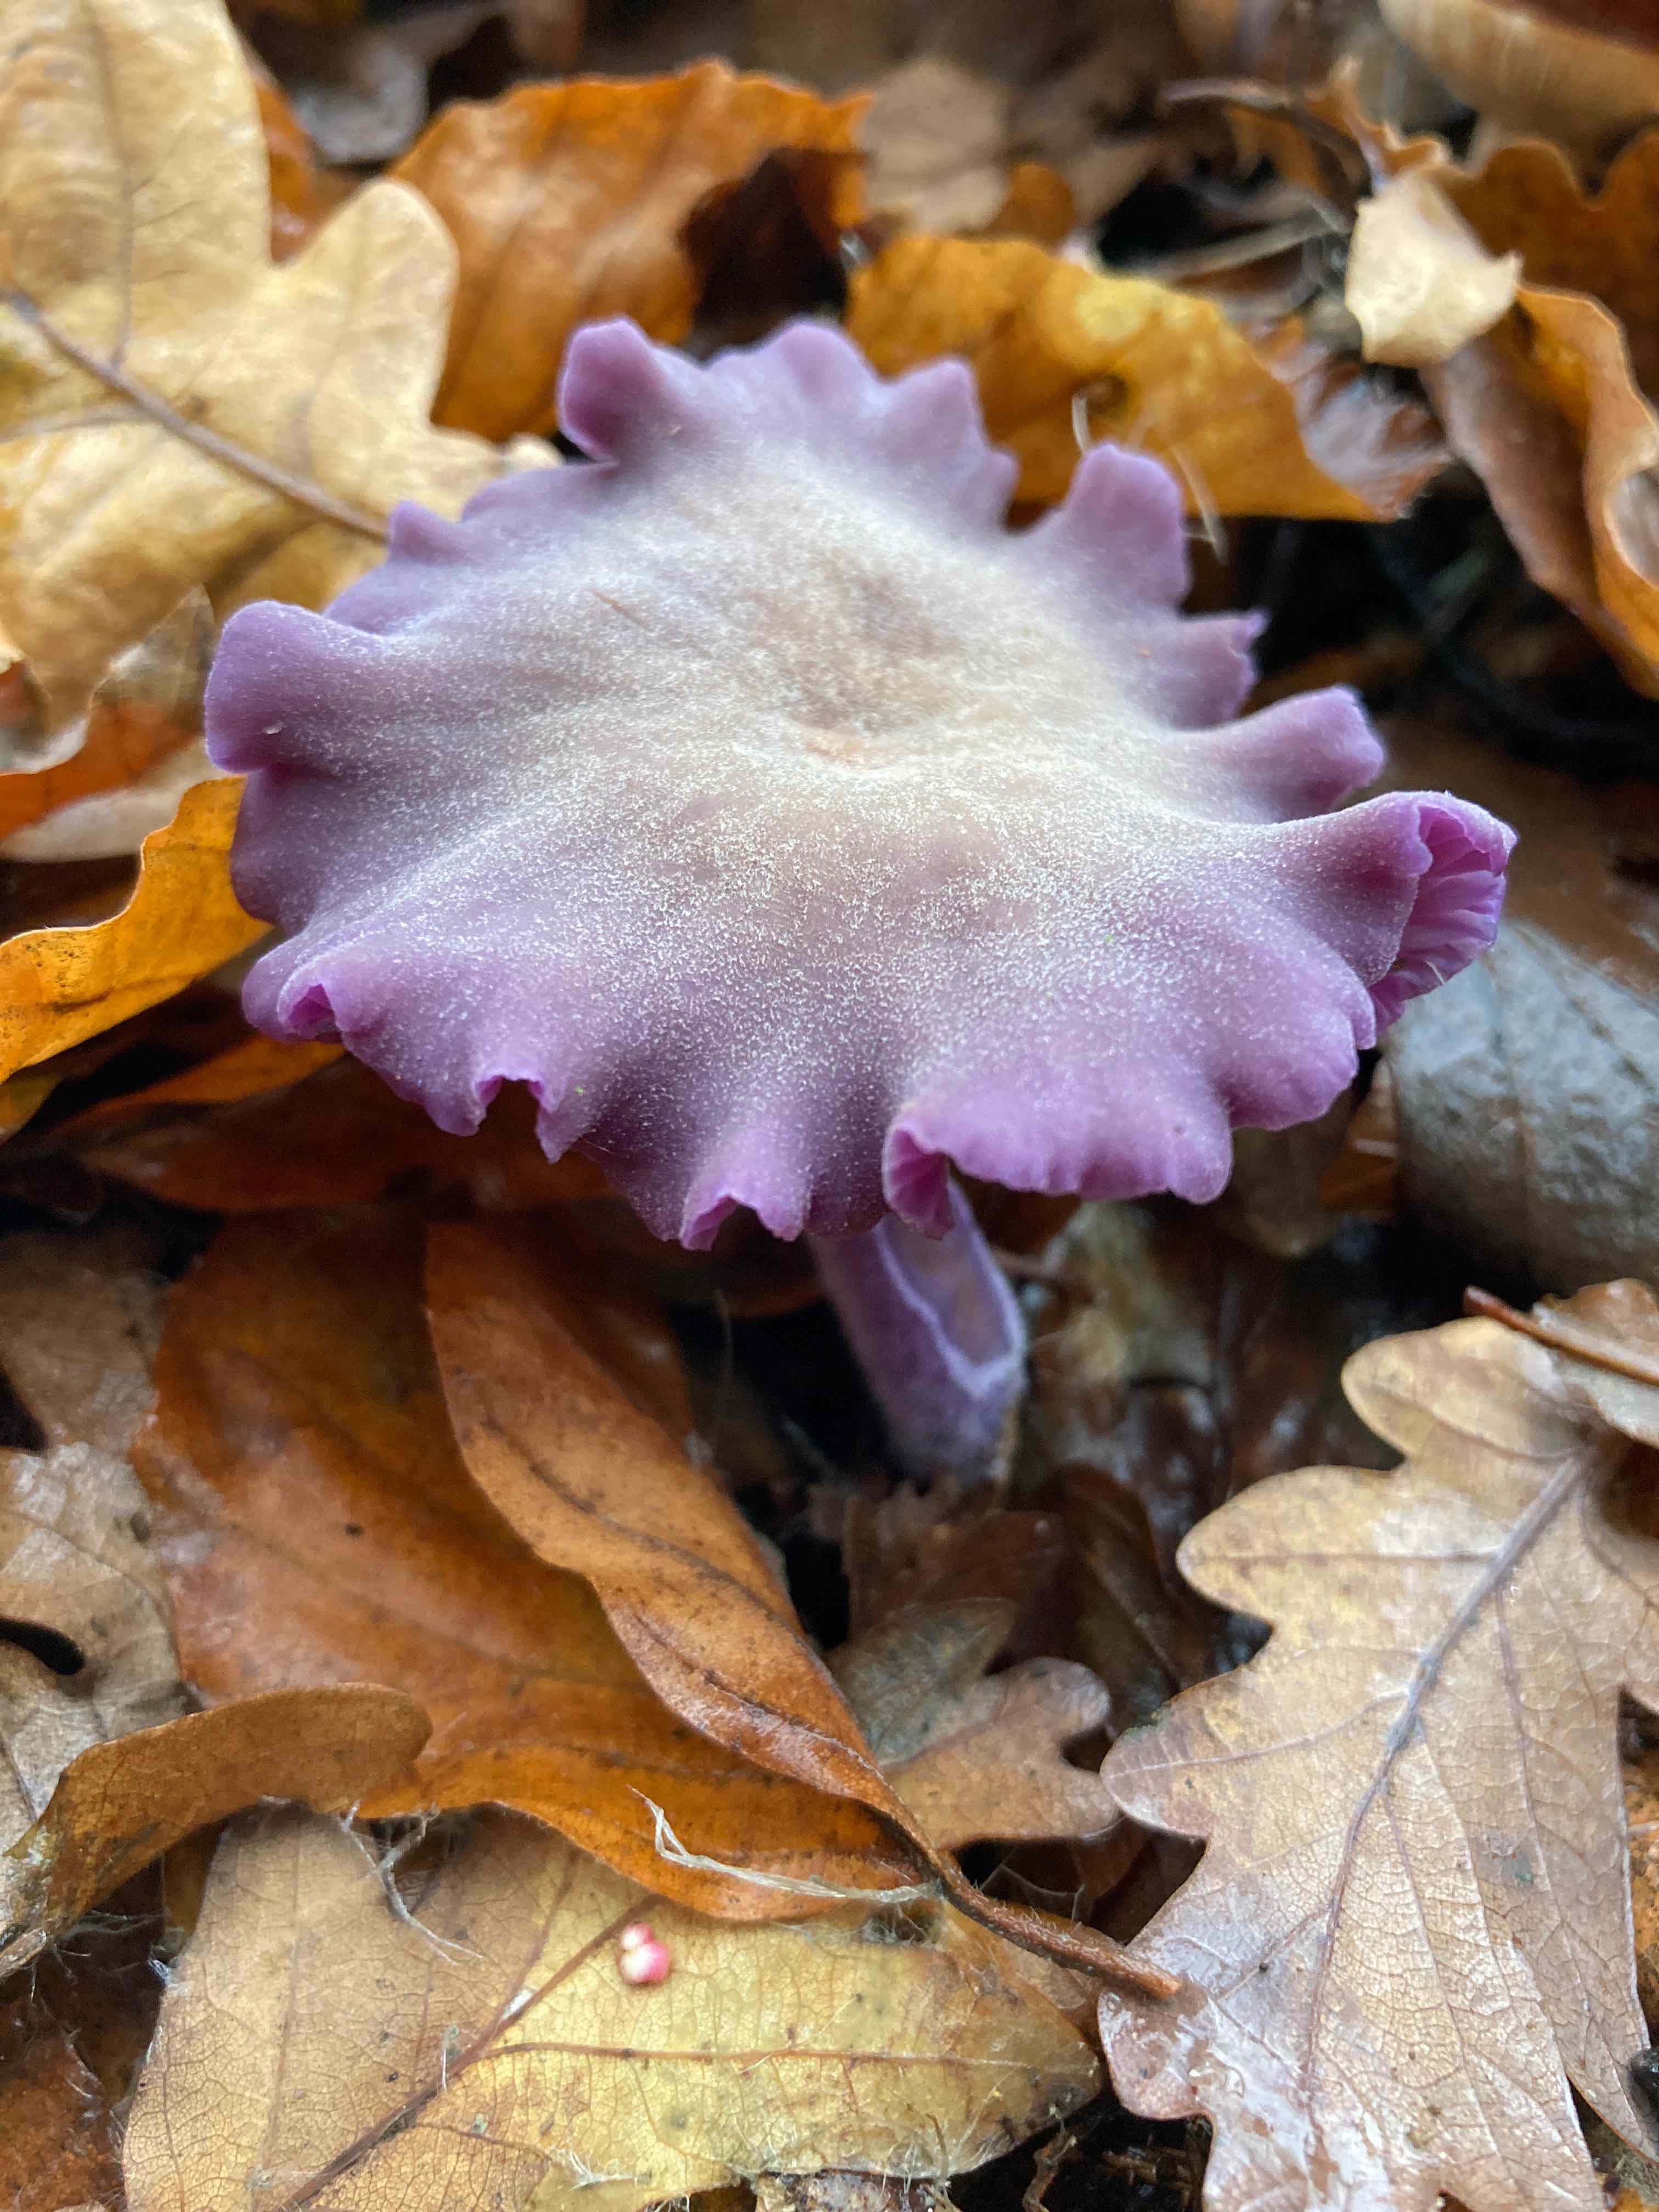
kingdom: Fungi
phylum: Basidiomycota
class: Agaricomycetes
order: Agaricales
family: Hydnangiaceae
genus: Laccaria
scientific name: Laccaria amethystina
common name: violet ametysthat
